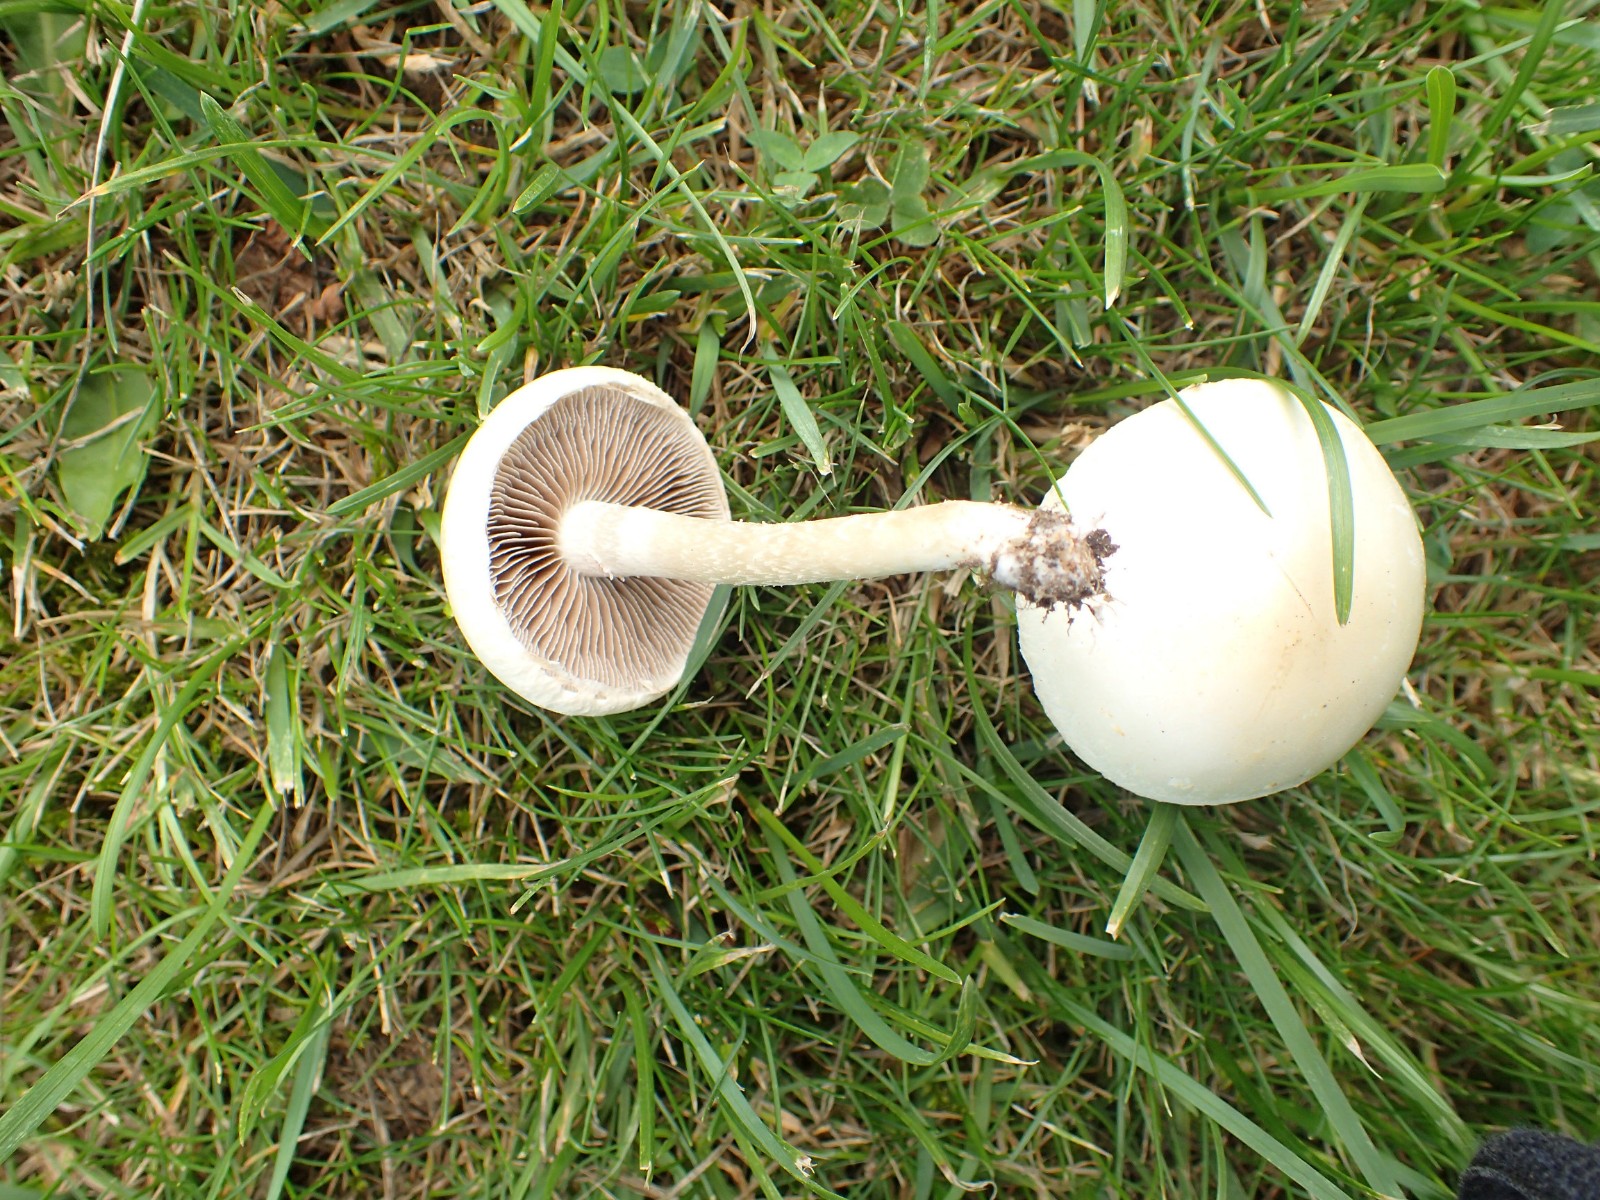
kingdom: Fungi
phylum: Basidiomycota
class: Agaricomycetes
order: Agaricales
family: Strophariaceae
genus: Agrocybe
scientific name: Agrocybe dura
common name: fastkødet agerhat
